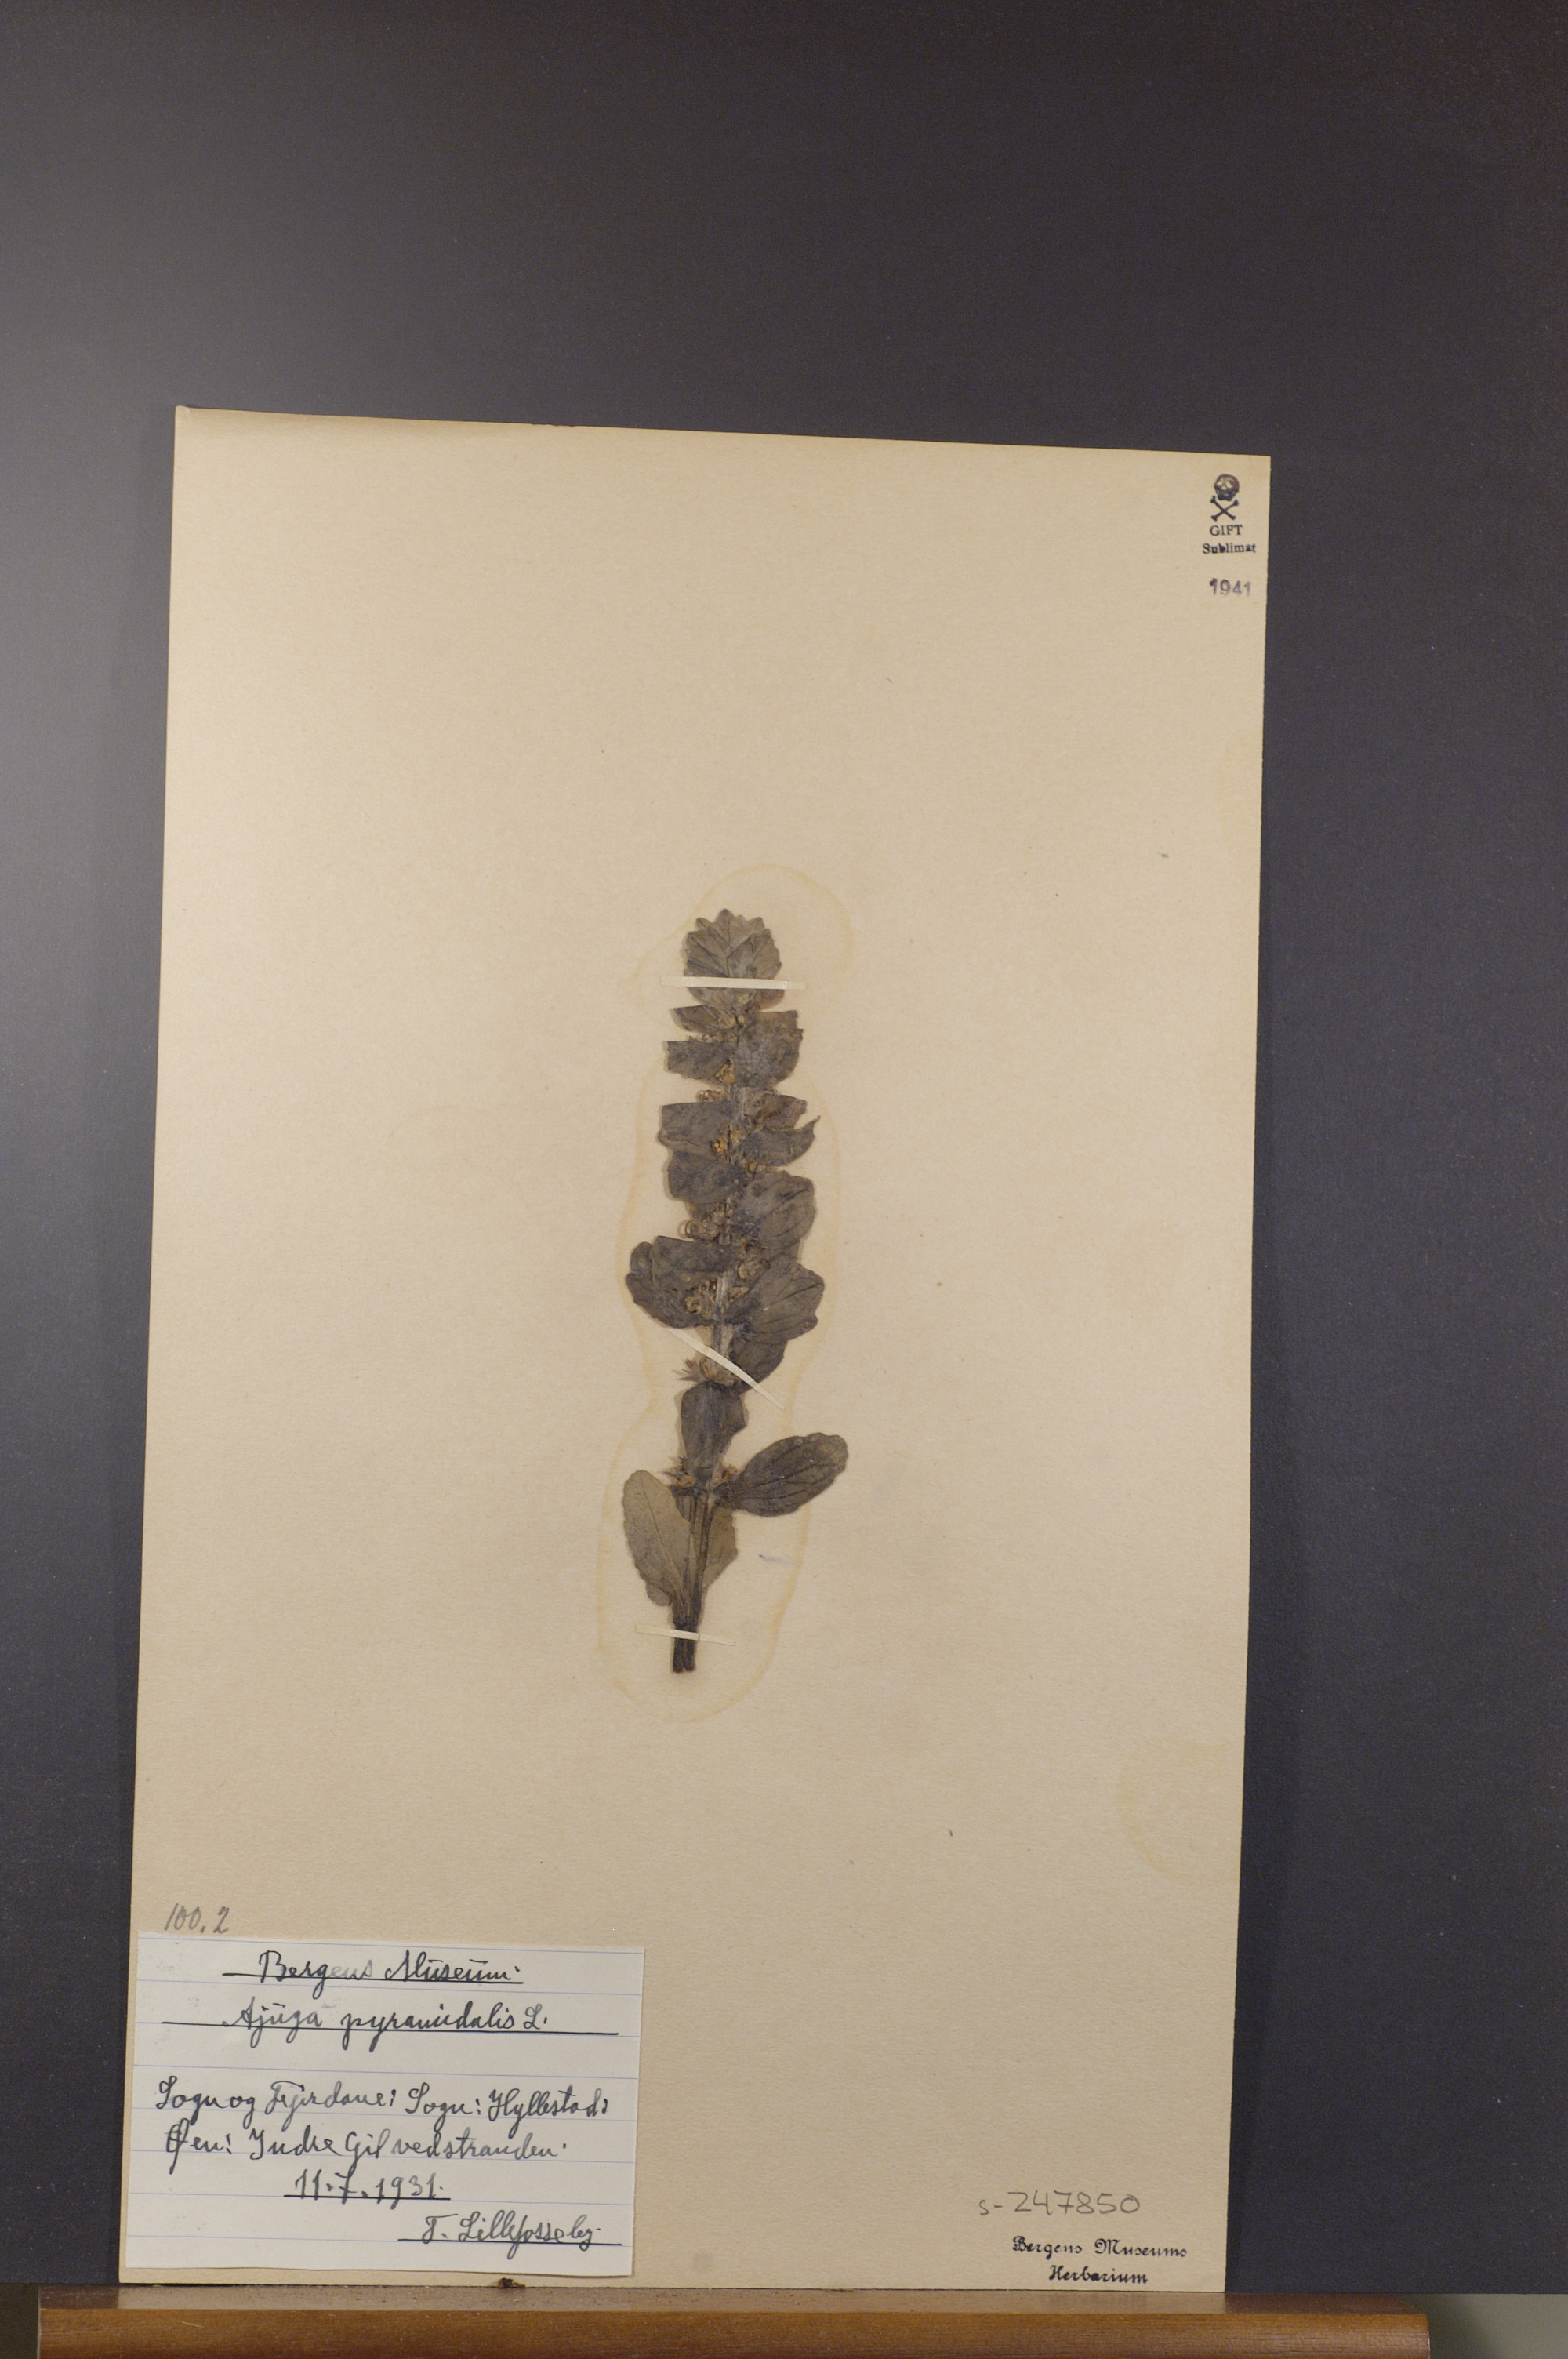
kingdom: Plantae
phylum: Tracheophyta
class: Magnoliopsida
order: Lamiales
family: Lamiaceae
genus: Ajuga
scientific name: Ajuga pyramidalis
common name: Pyramid bugle
